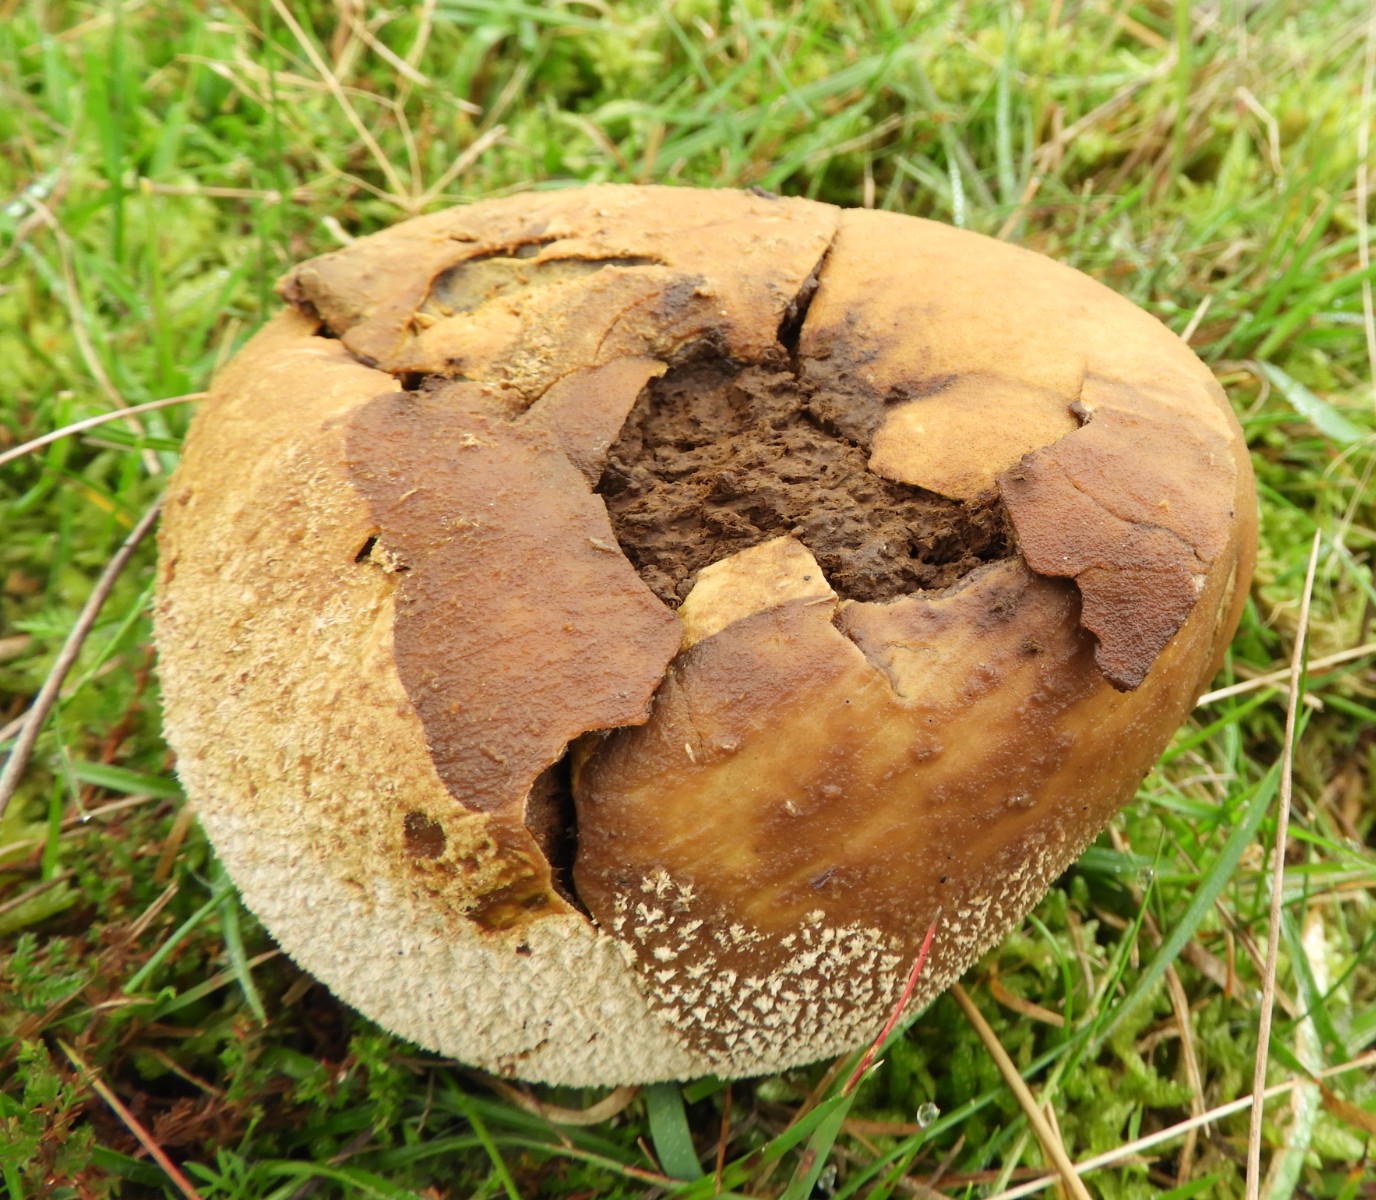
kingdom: Fungi
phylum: Basidiomycota
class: Agaricomycetes
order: Agaricales
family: Lycoperdaceae
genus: Bovistella
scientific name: Bovistella utriformis
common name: skællet støvbold
